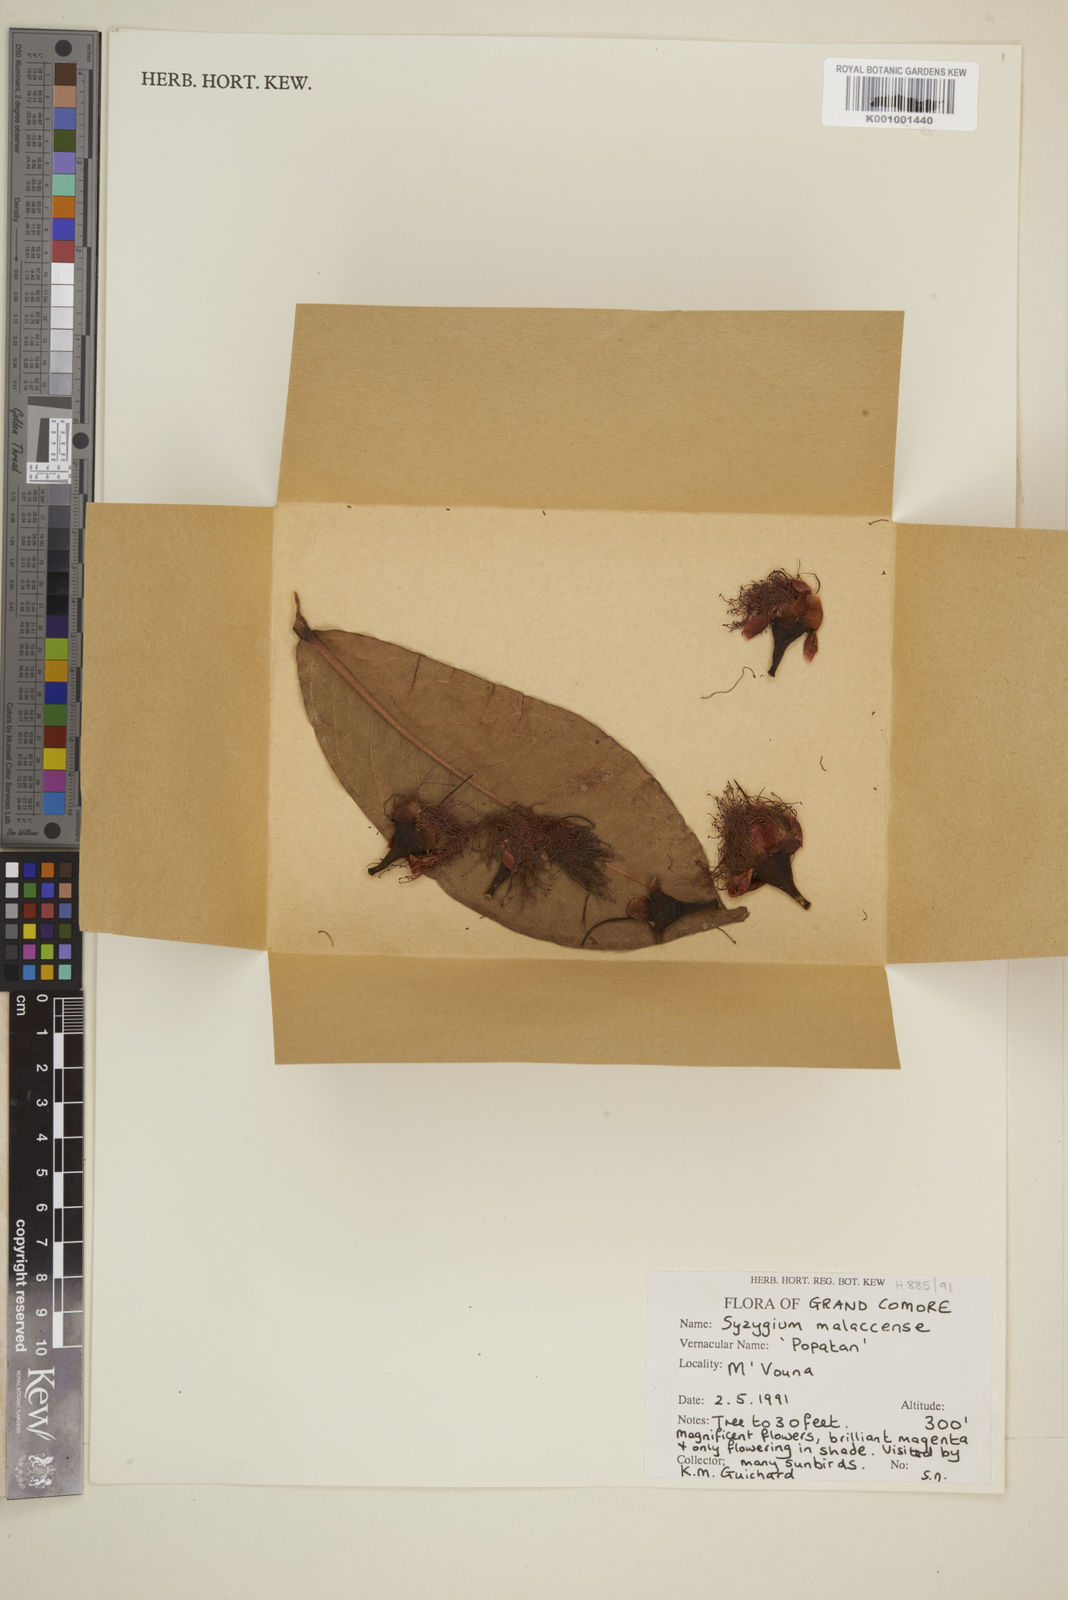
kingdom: Plantae
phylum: Tracheophyta
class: Magnoliopsida
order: Myrtales
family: Myrtaceae
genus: Syzygium
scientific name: Syzygium malaccense
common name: Malaysian apple
